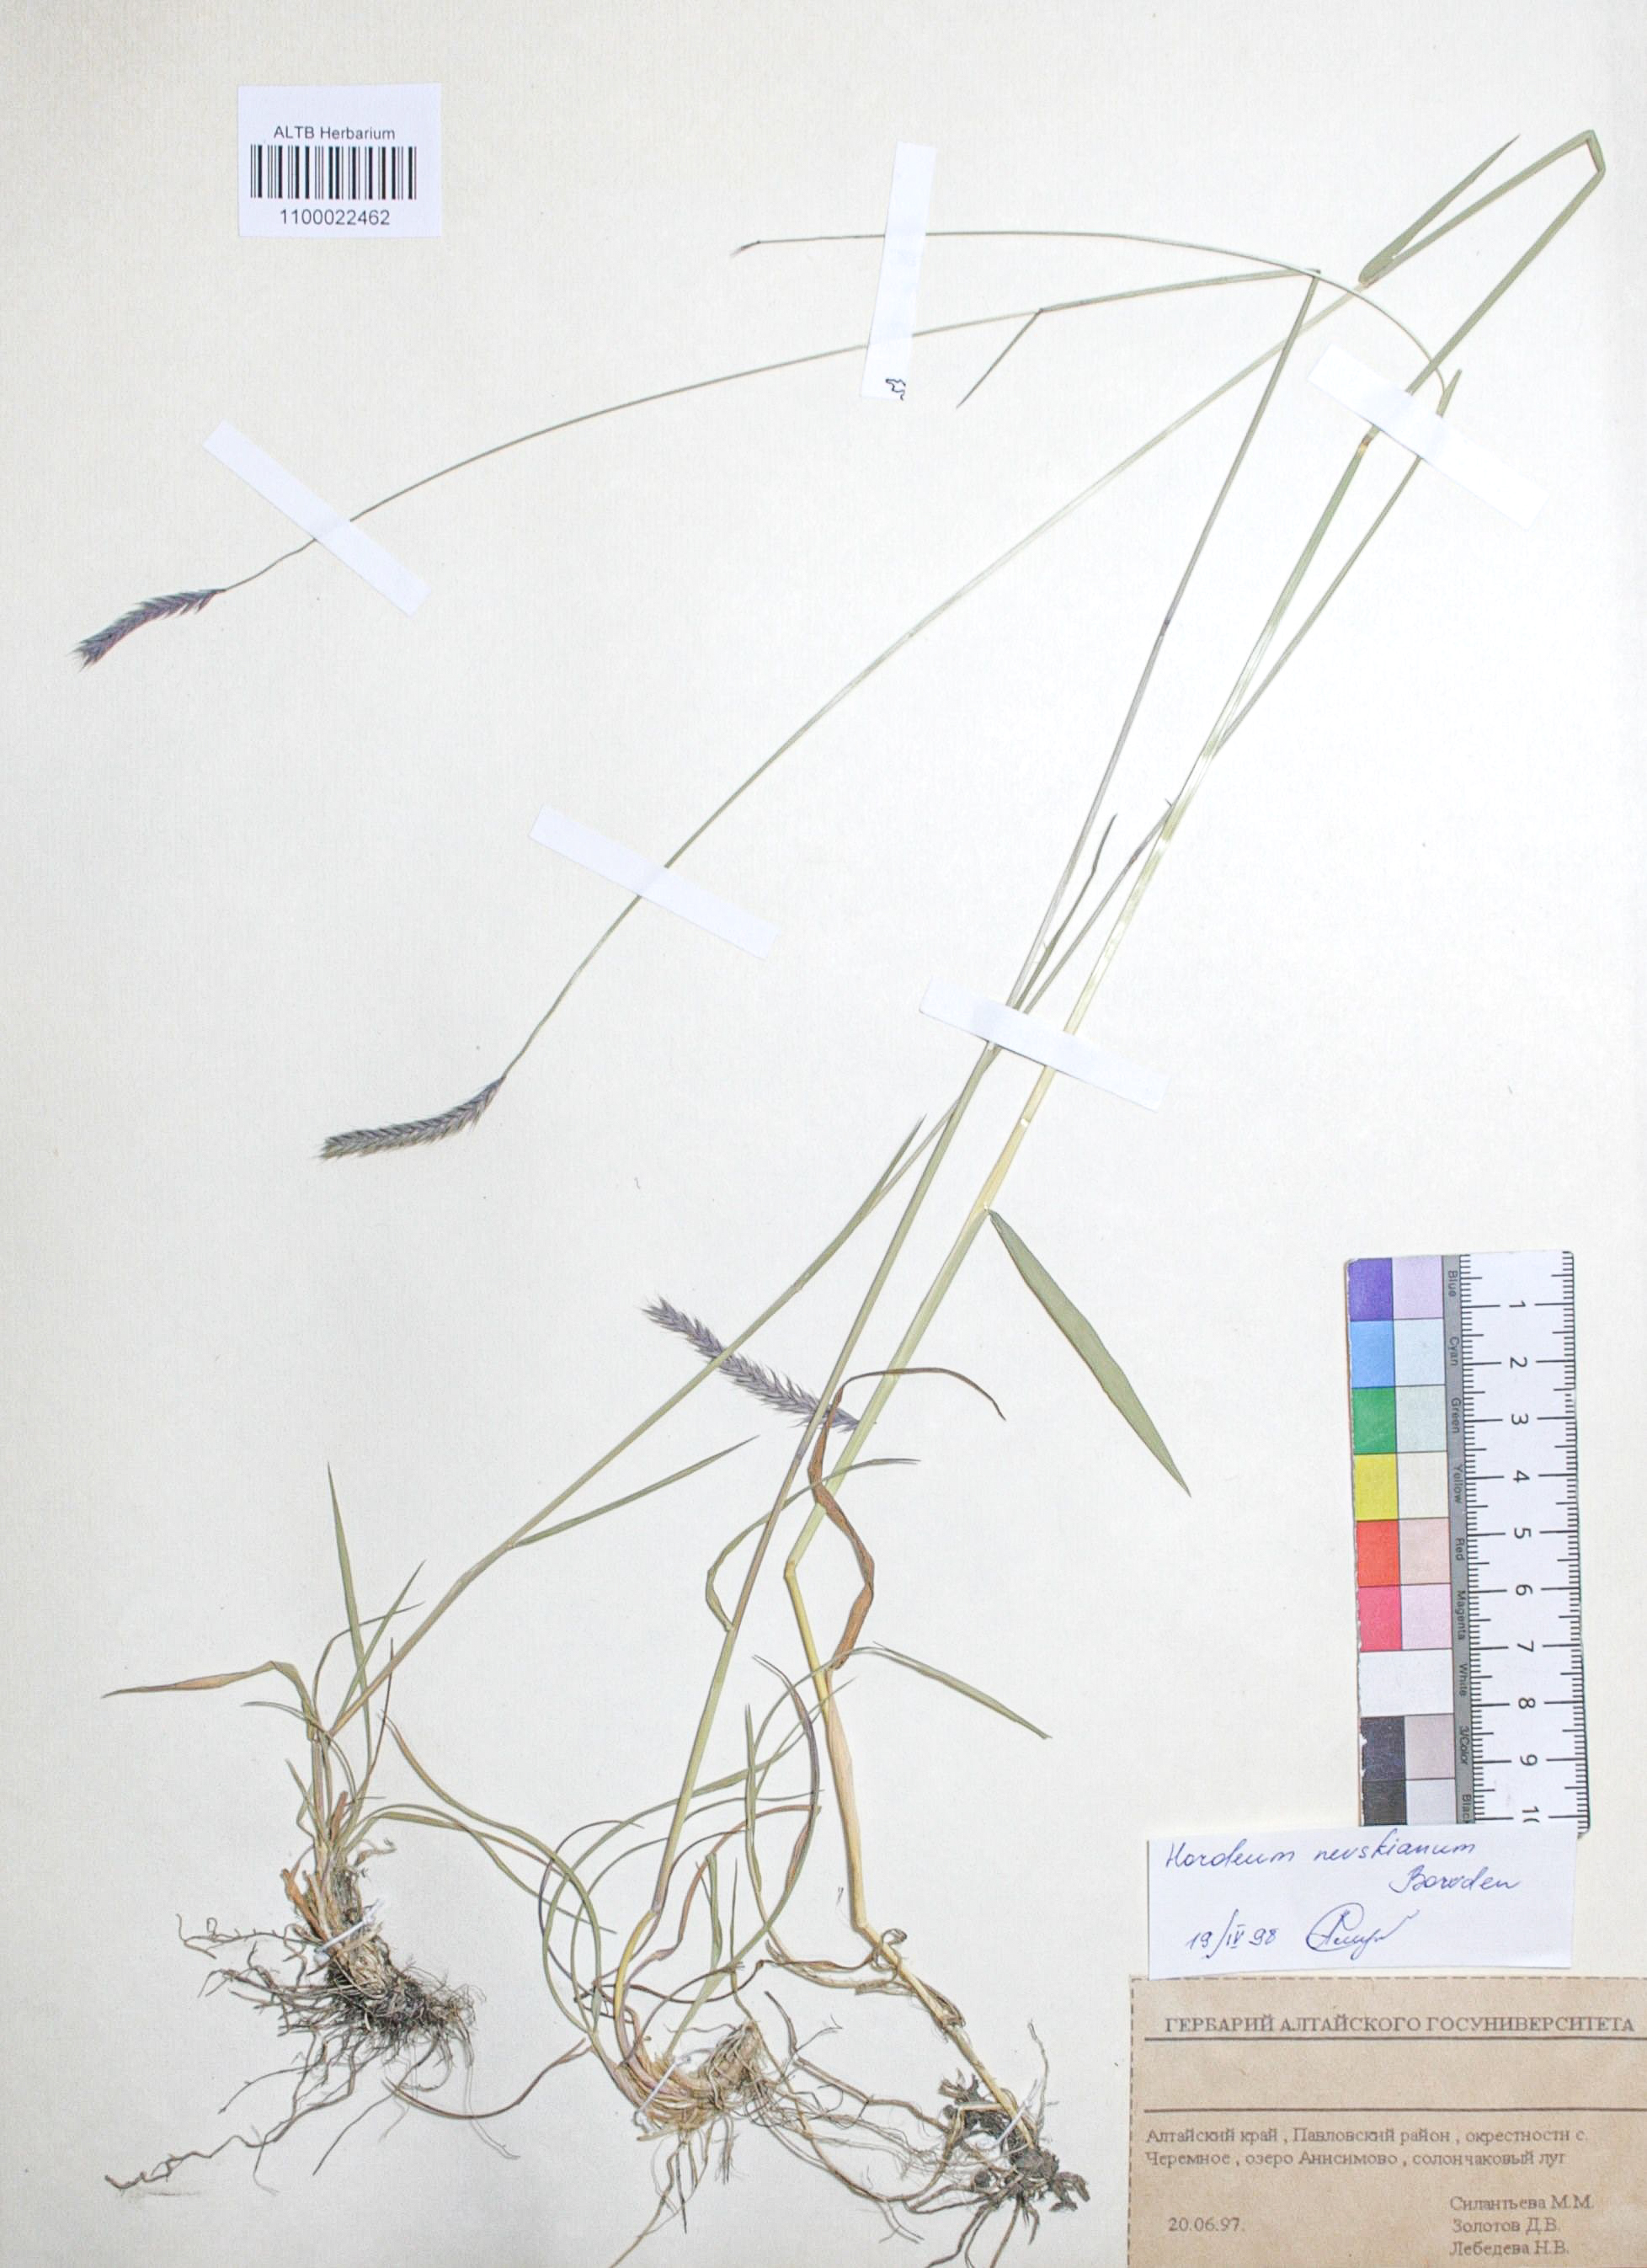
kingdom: Plantae
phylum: Tracheophyta
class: Liliopsida
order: Poales
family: Poaceae
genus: Hordeum
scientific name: Hordeum brevisubulatum
